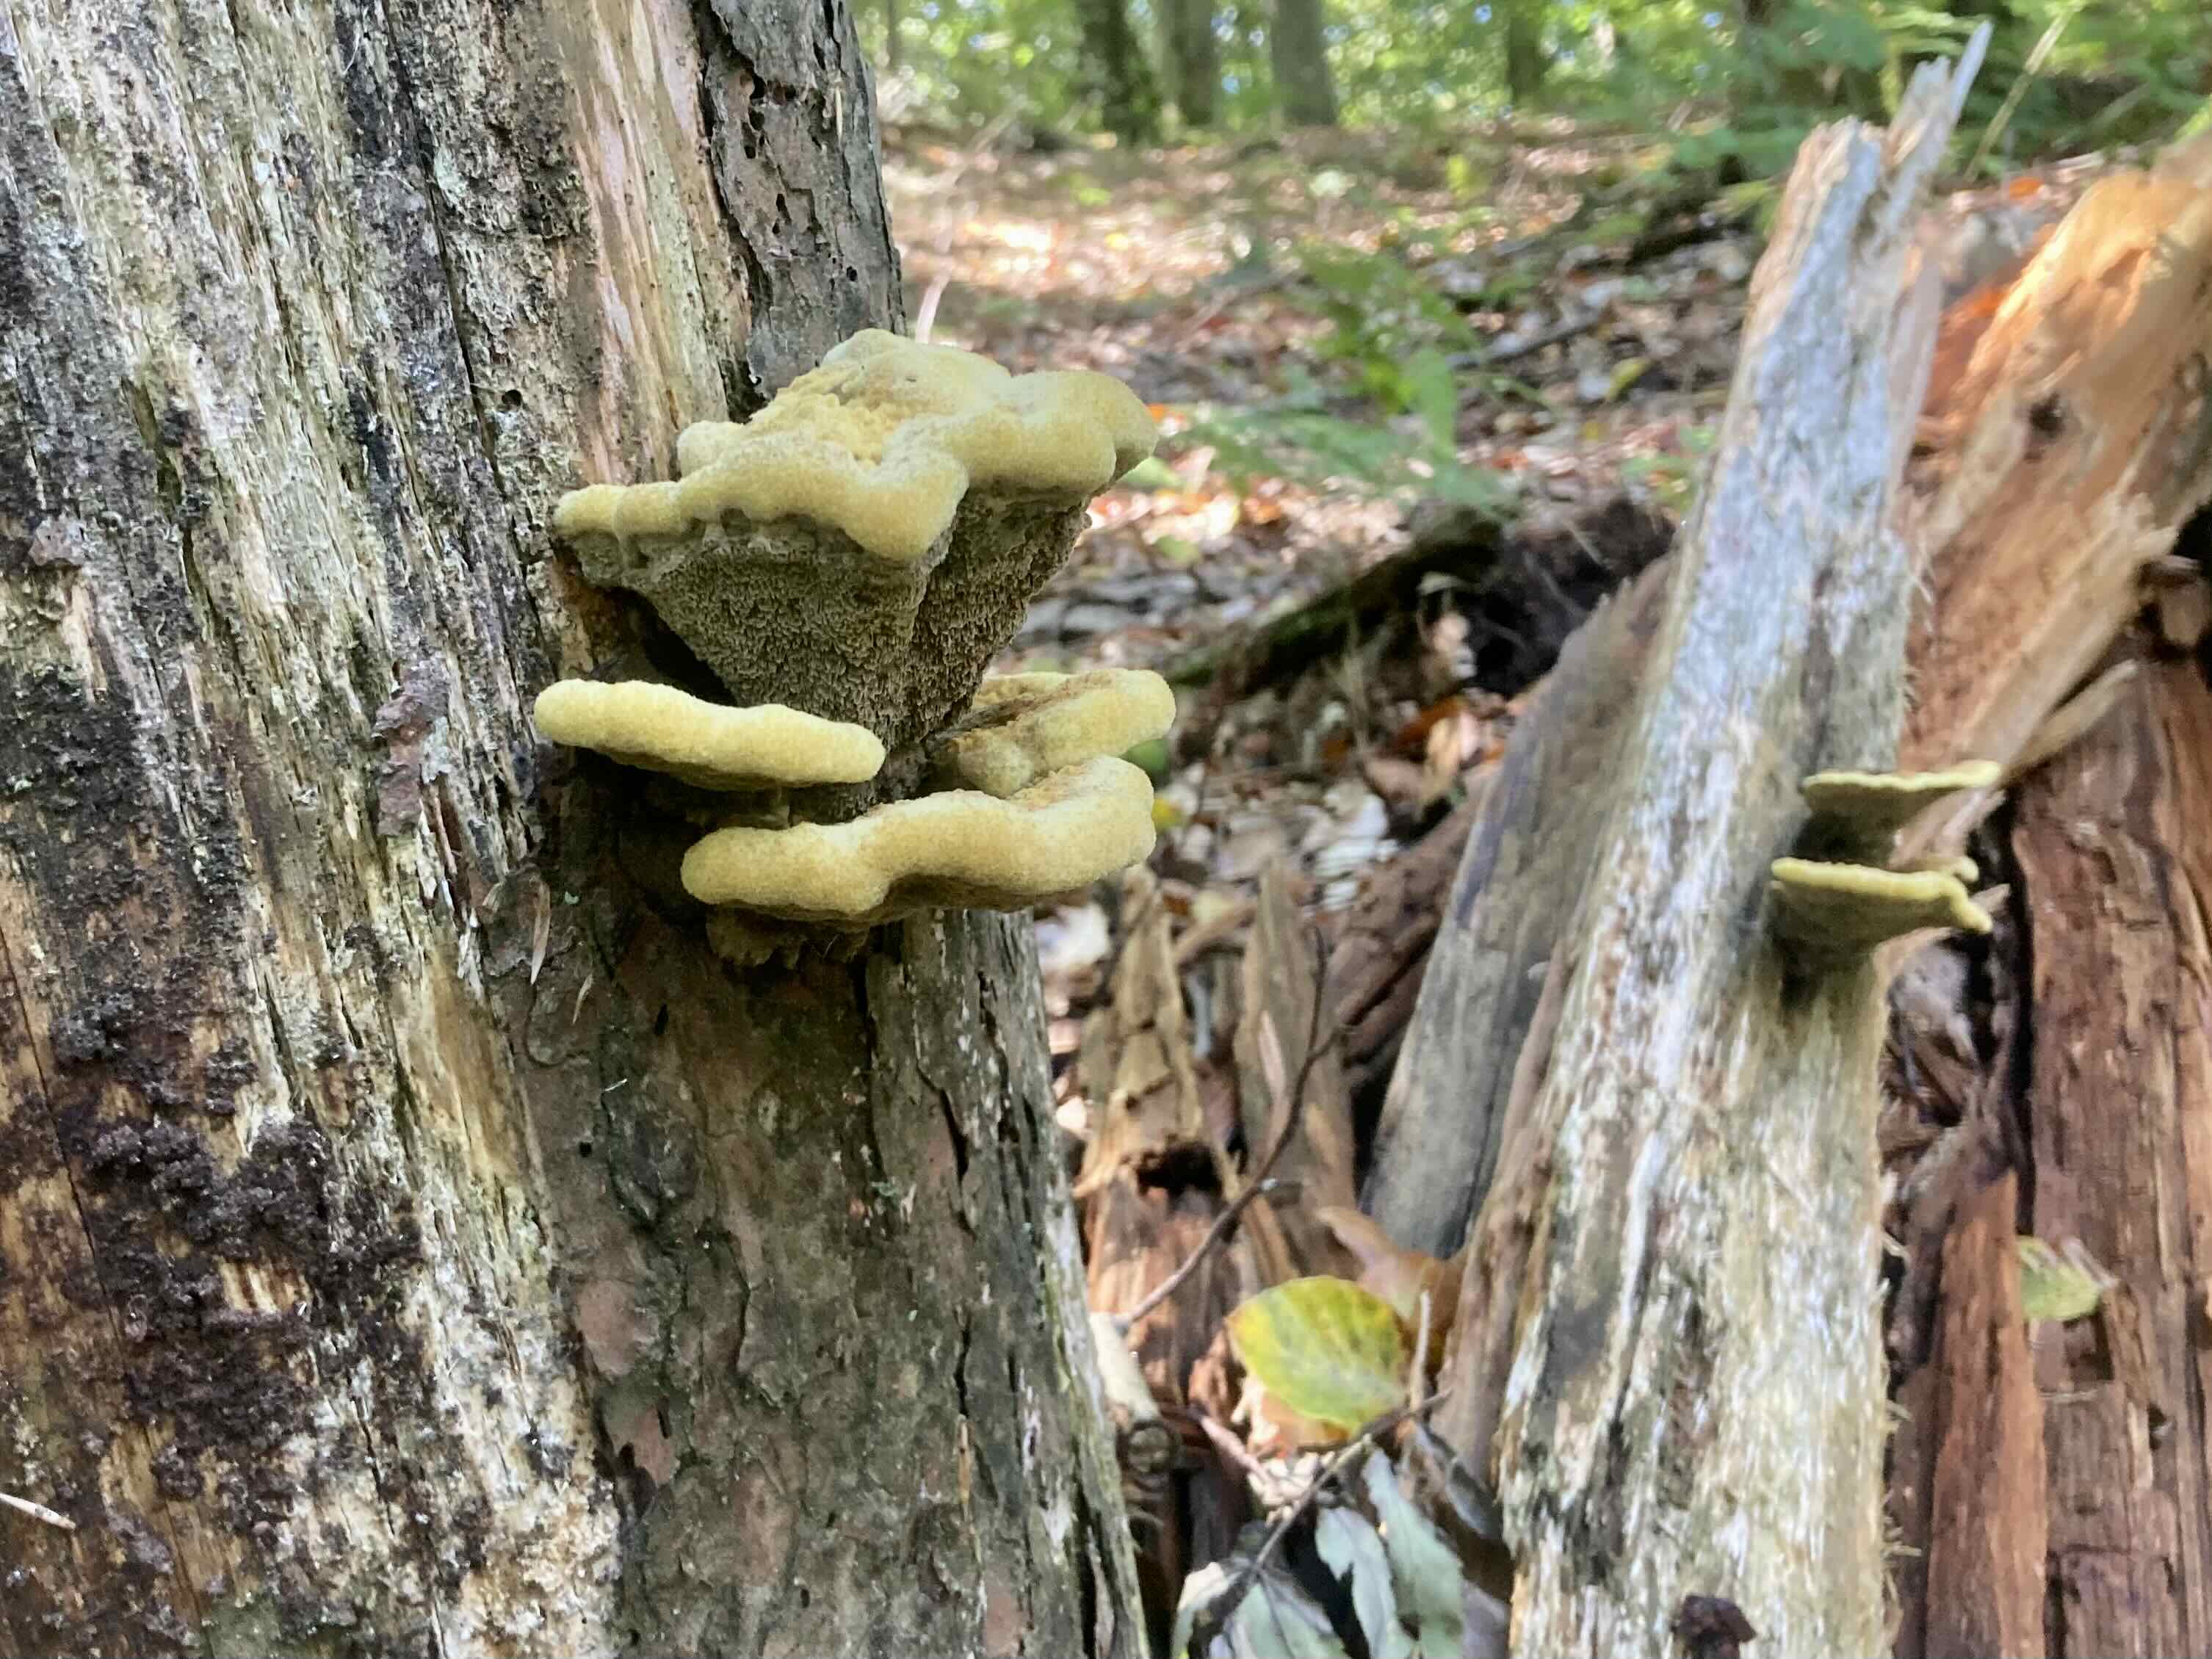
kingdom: Fungi
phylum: Basidiomycota
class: Agaricomycetes
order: Polyporales
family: Laetiporaceae
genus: Phaeolus
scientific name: Phaeolus schweinitzii
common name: brunporesvamp
